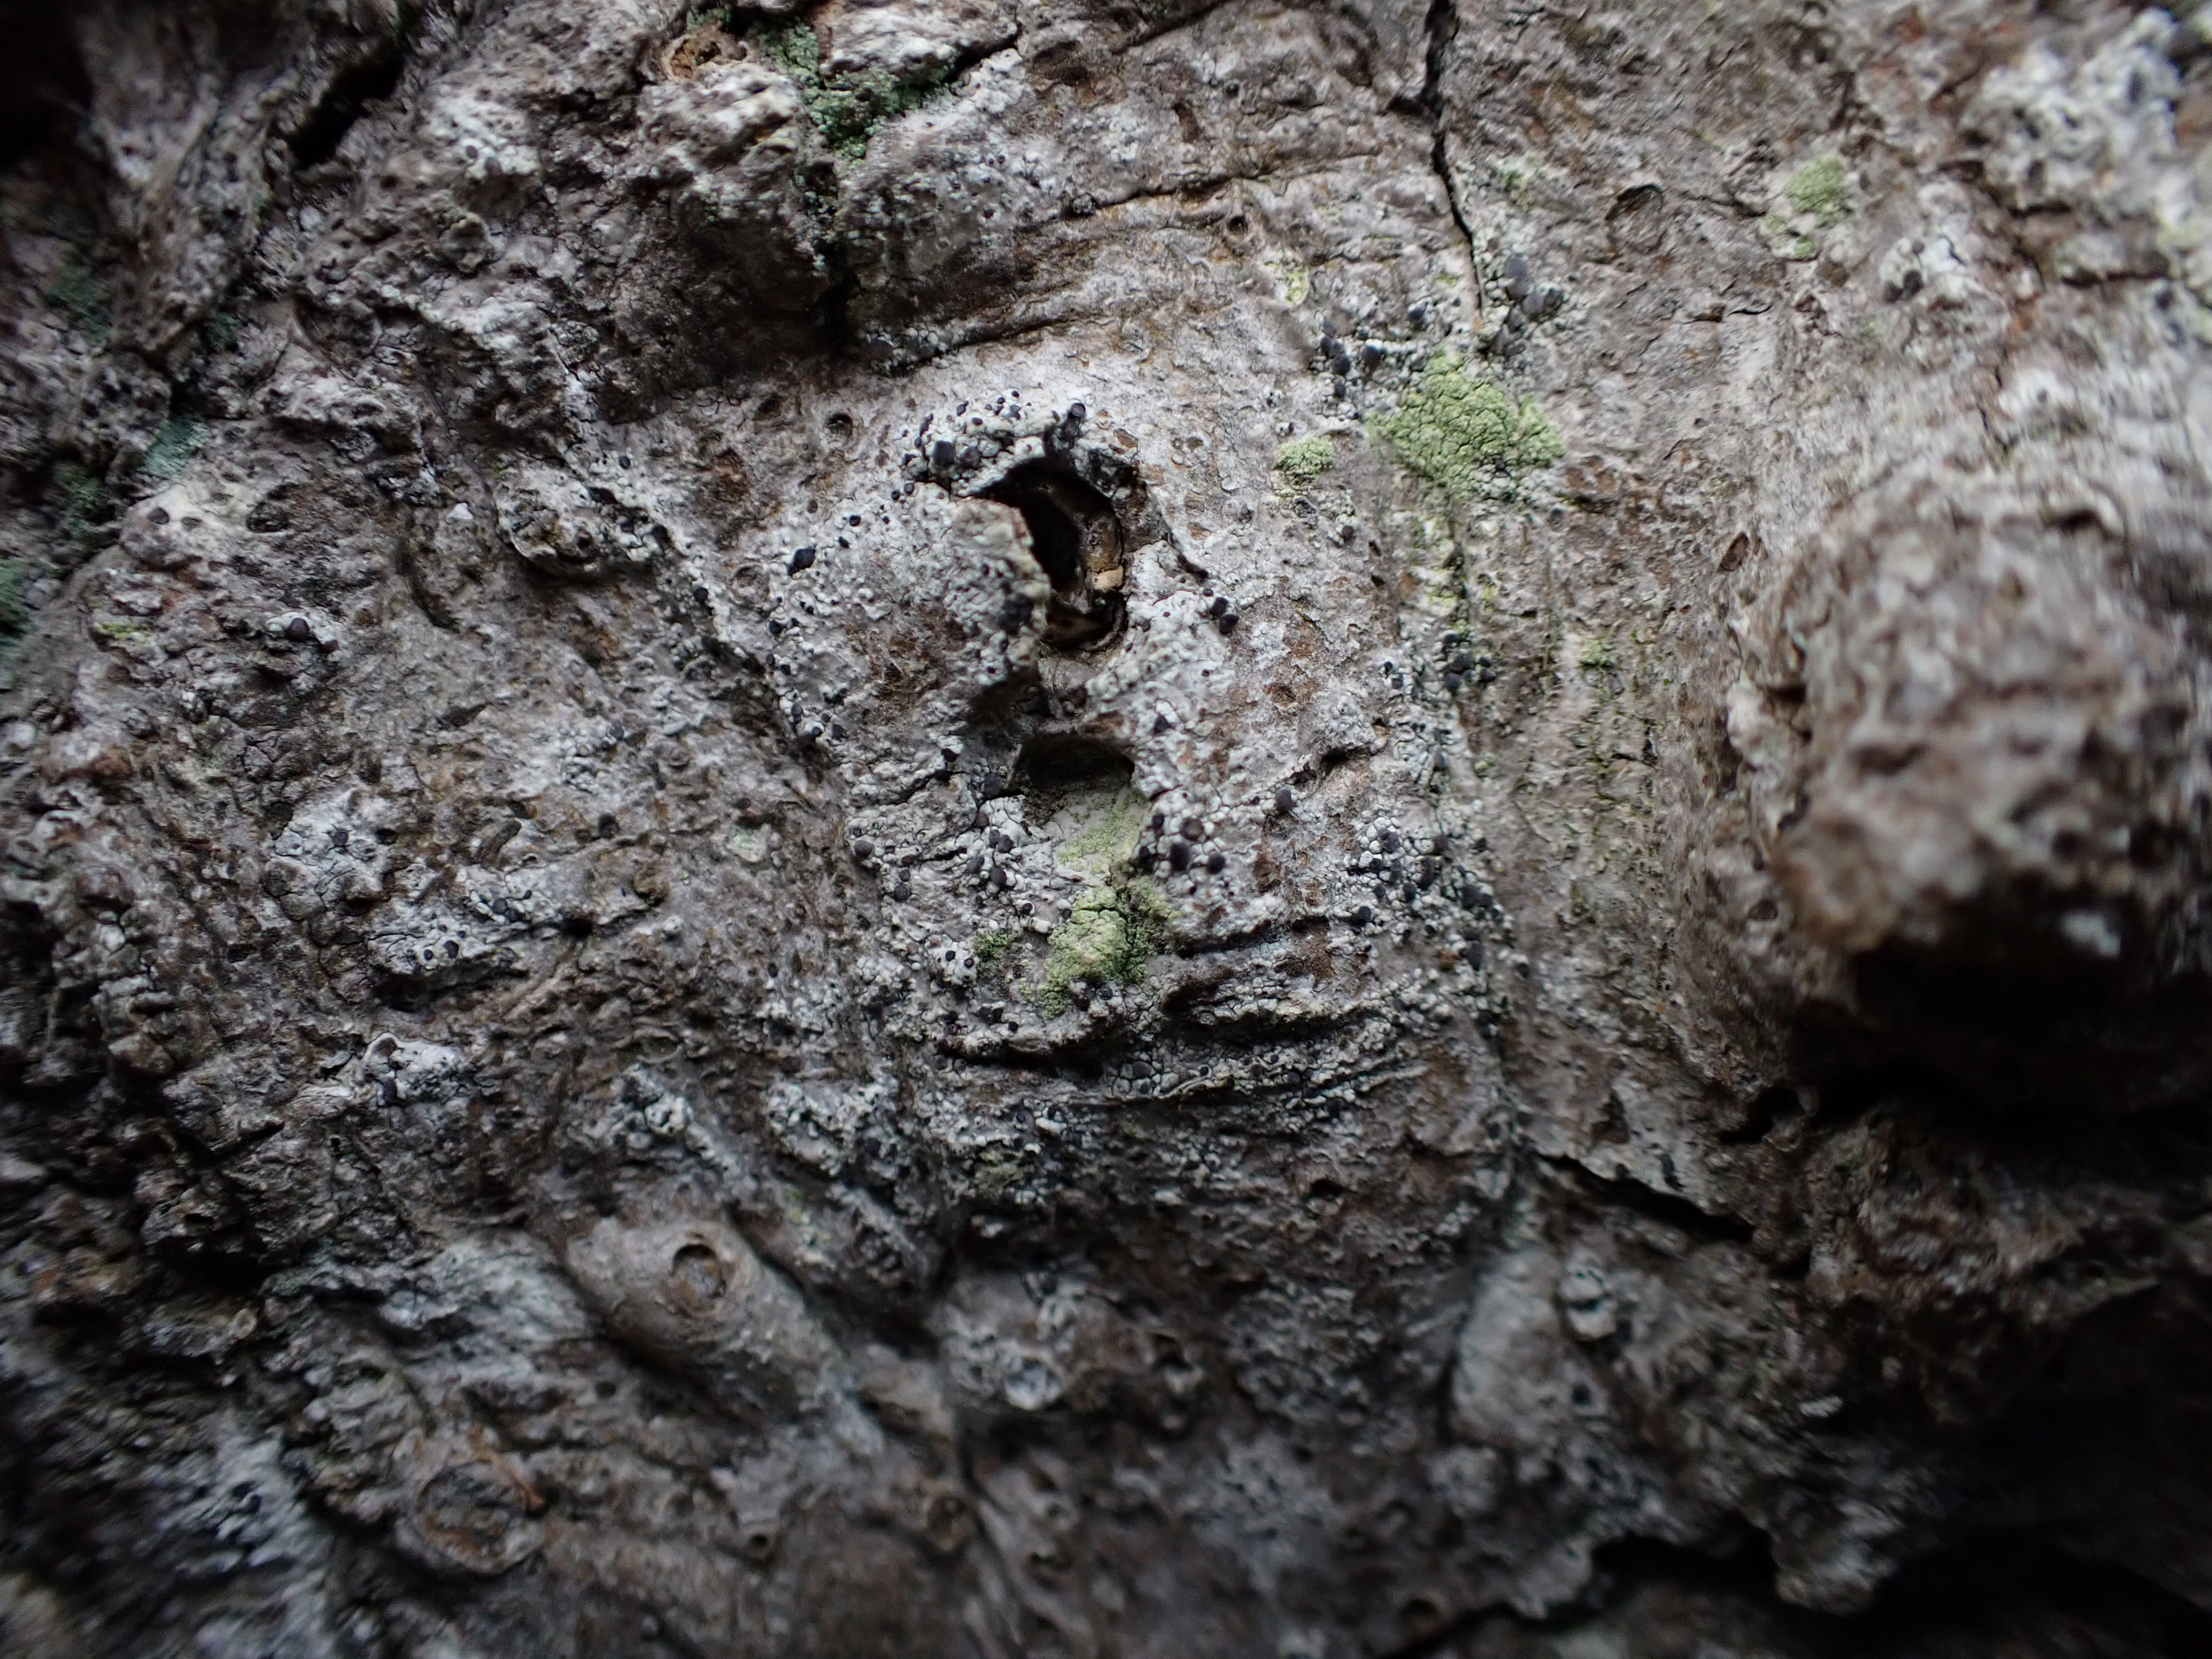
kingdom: Fungi
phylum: Ascomycota
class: Lecanoromycetes
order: Lecanorales
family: Ramalinaceae
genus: Cliostomum
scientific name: Cliostomum griffithii
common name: Trefarvet tensporelav
